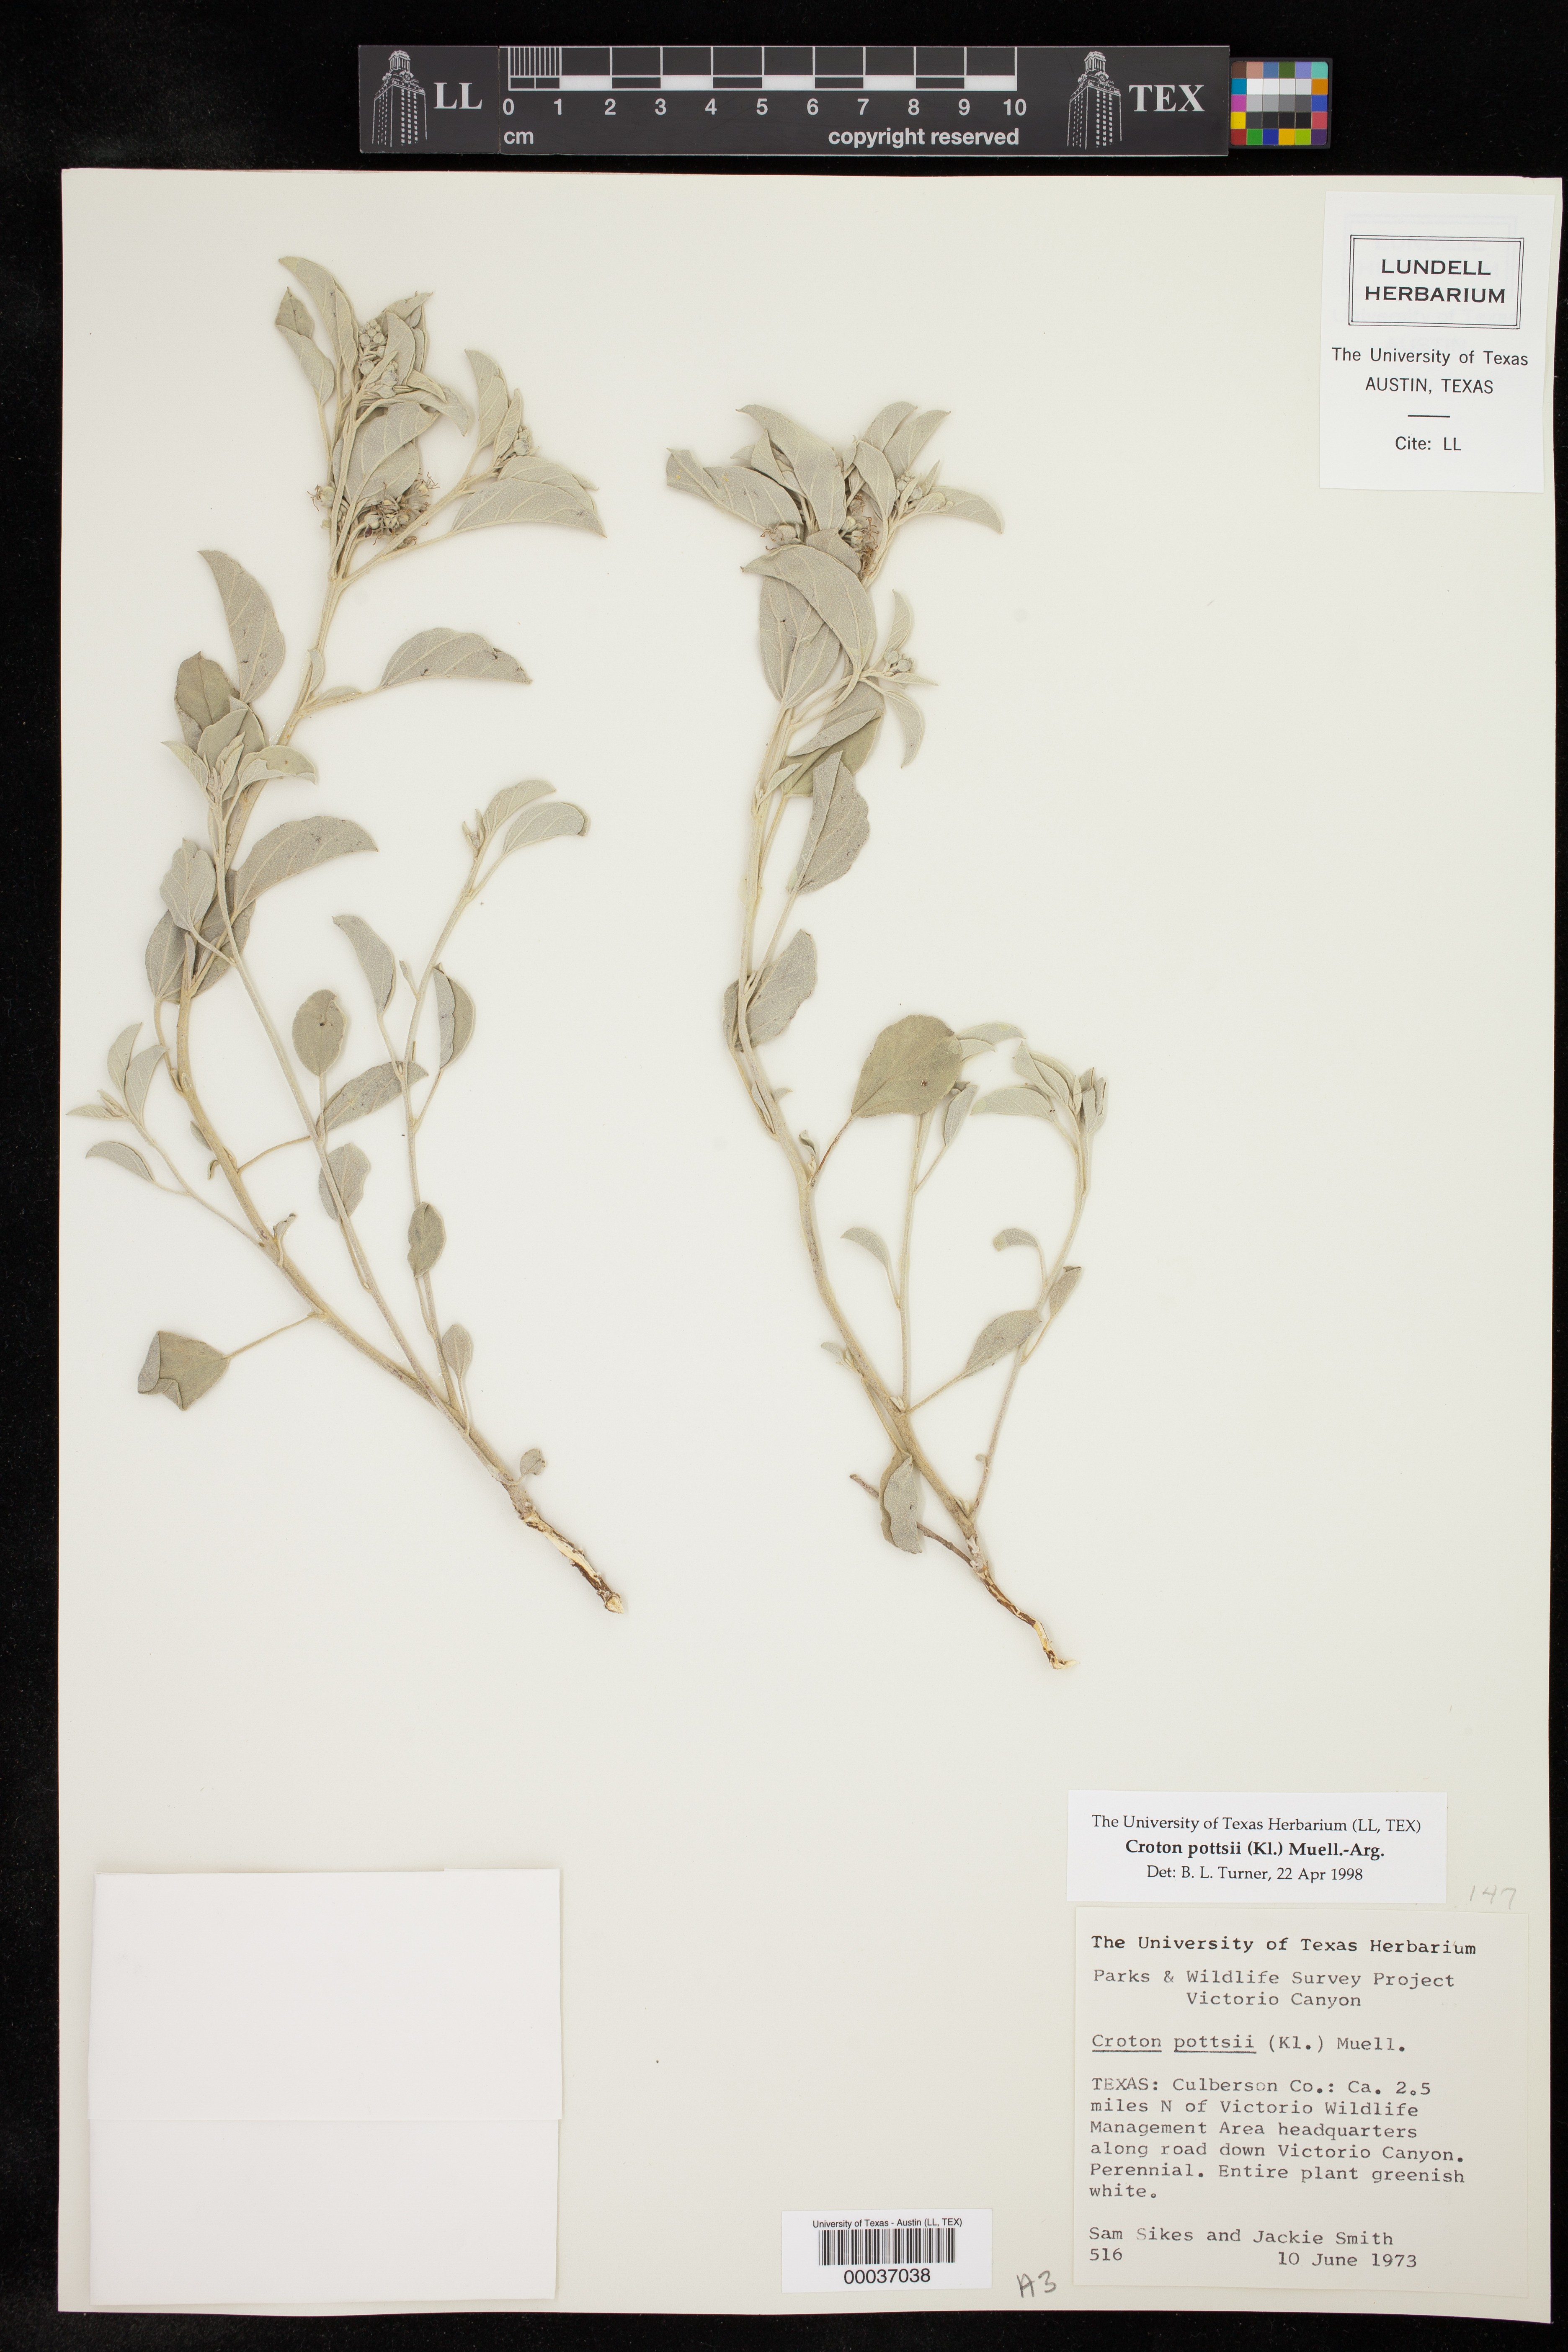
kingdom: Plantae
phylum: Tracheophyta
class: Magnoliopsida
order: Malpighiales
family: Euphorbiaceae
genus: Croton
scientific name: Croton pottsii
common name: Leatherweed
